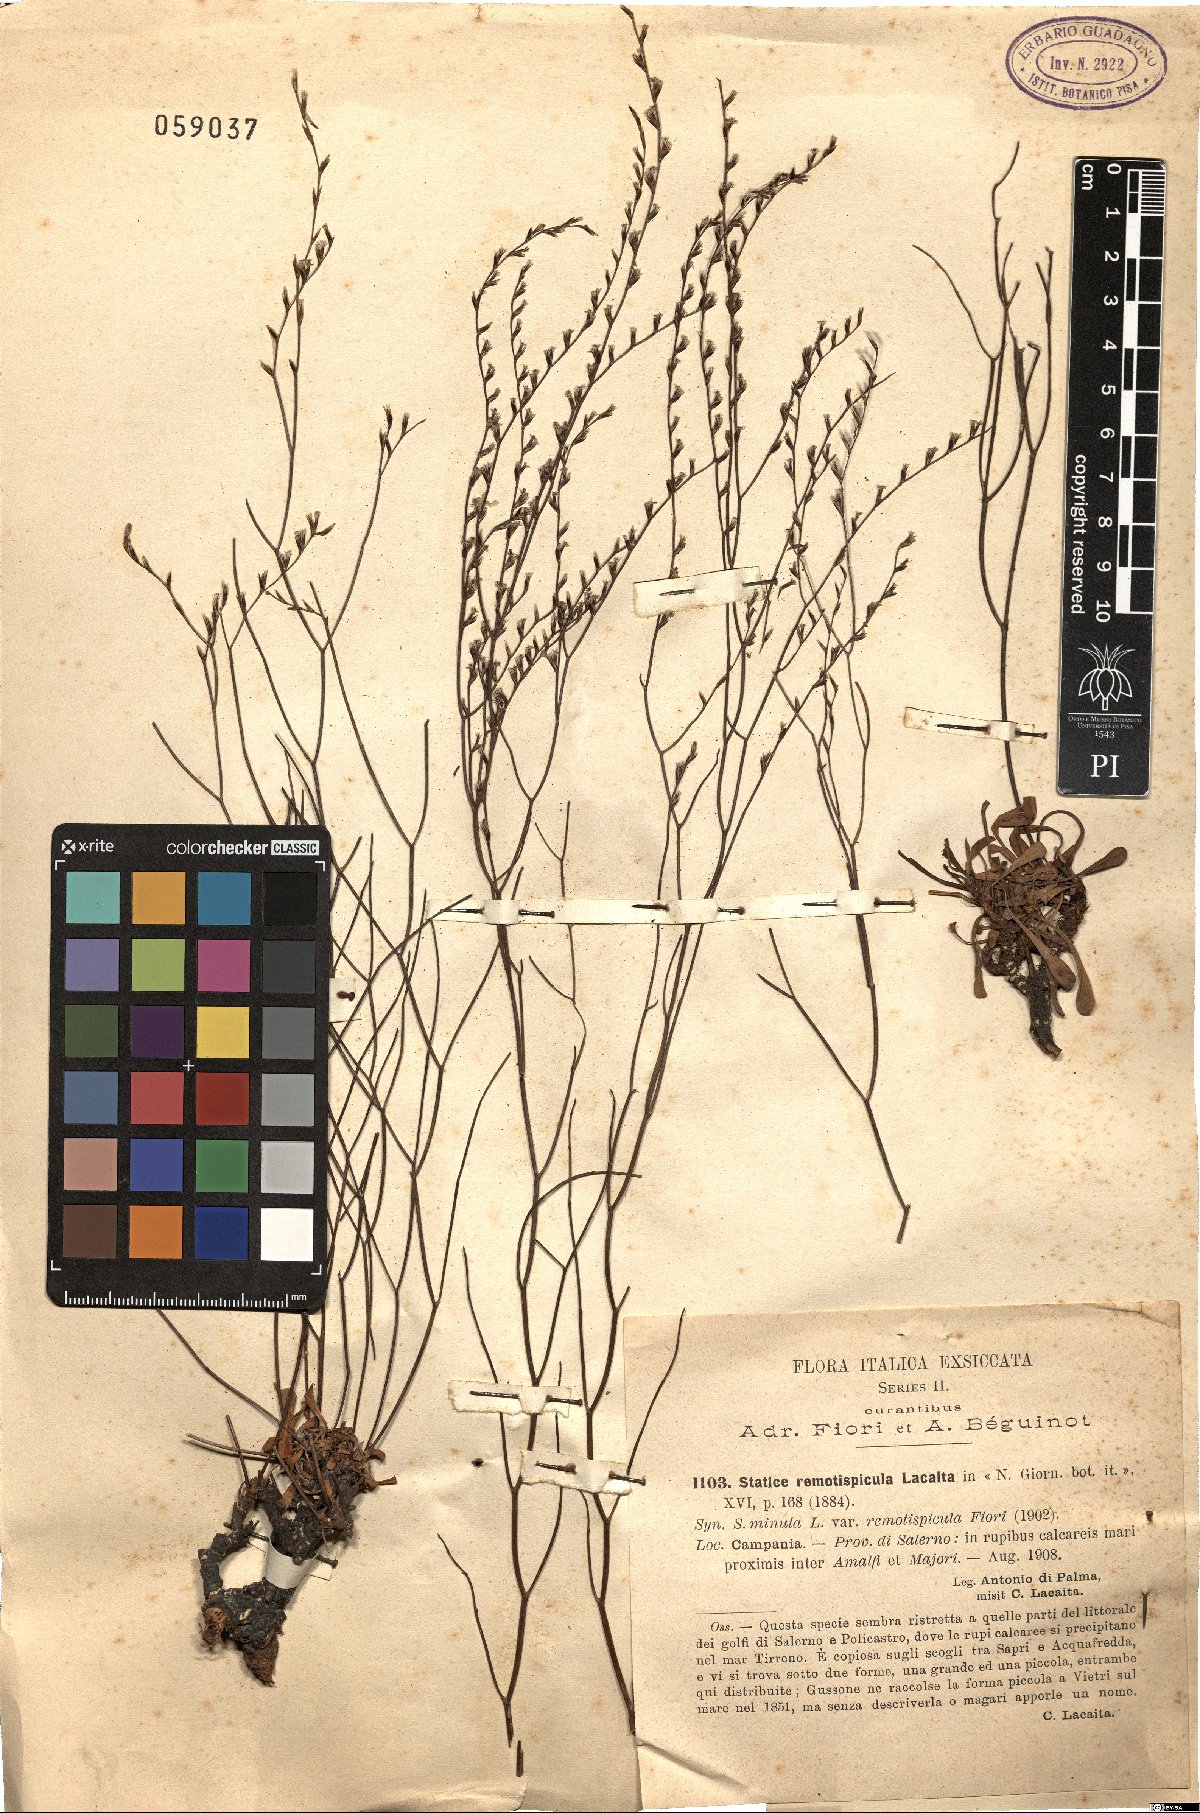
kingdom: Plantae
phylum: Tracheophyta
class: Magnoliopsida
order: Caryophyllales
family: Plumbaginaceae
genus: Limonium
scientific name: Limonium remotispiculum
